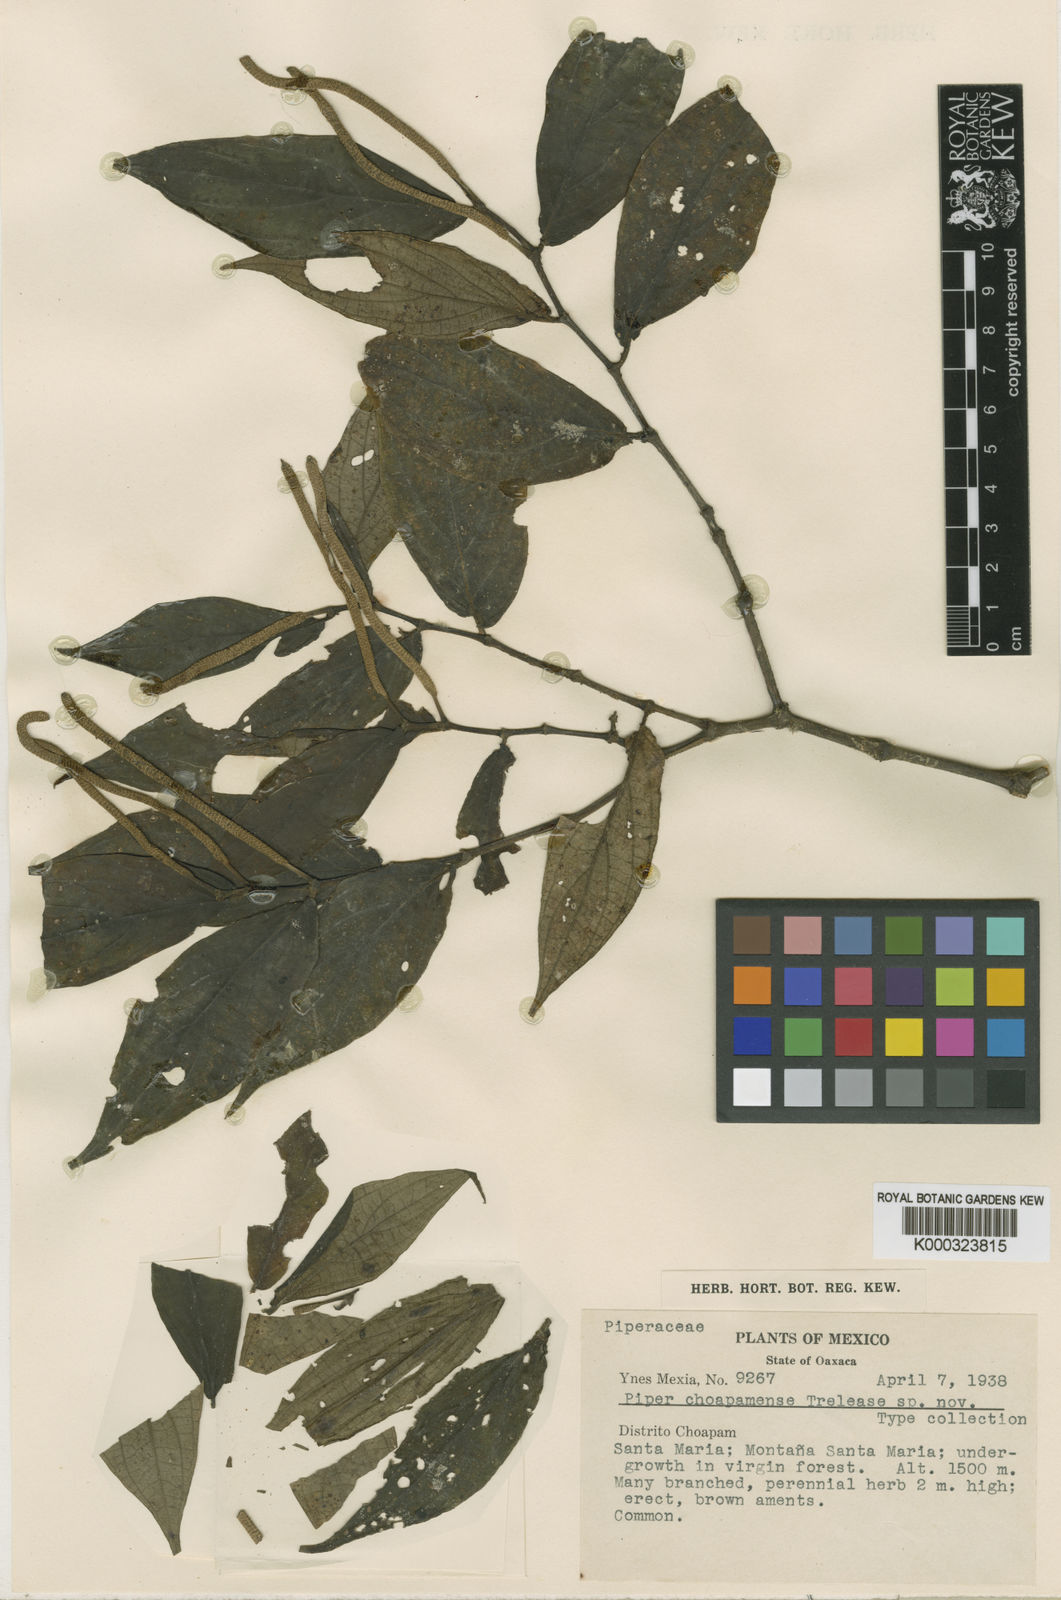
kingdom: Plantae
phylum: Tracheophyta
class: Magnoliopsida
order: Piperales
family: Piperaceae
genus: Piper
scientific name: Piper
